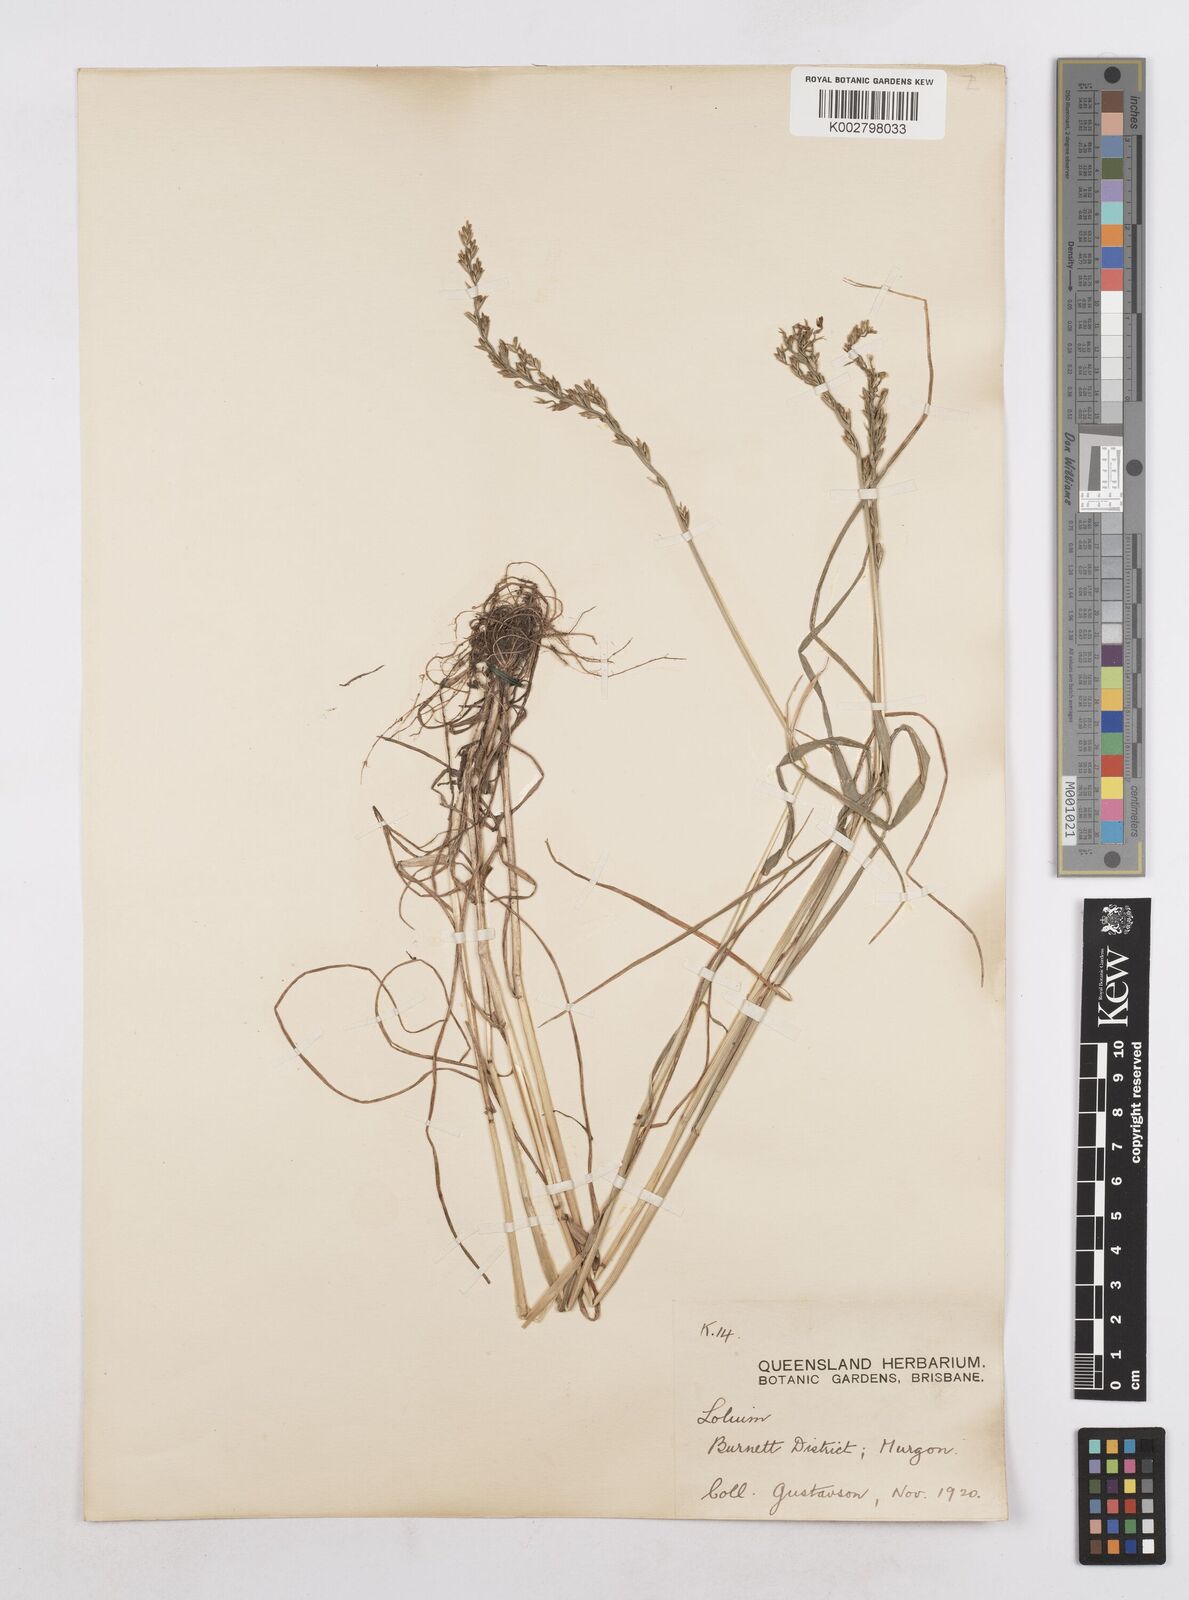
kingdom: Plantae
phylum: Tracheophyta
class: Liliopsida
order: Poales
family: Poaceae
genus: Lolium
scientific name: Lolium perenne
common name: Perennial ryegrass
